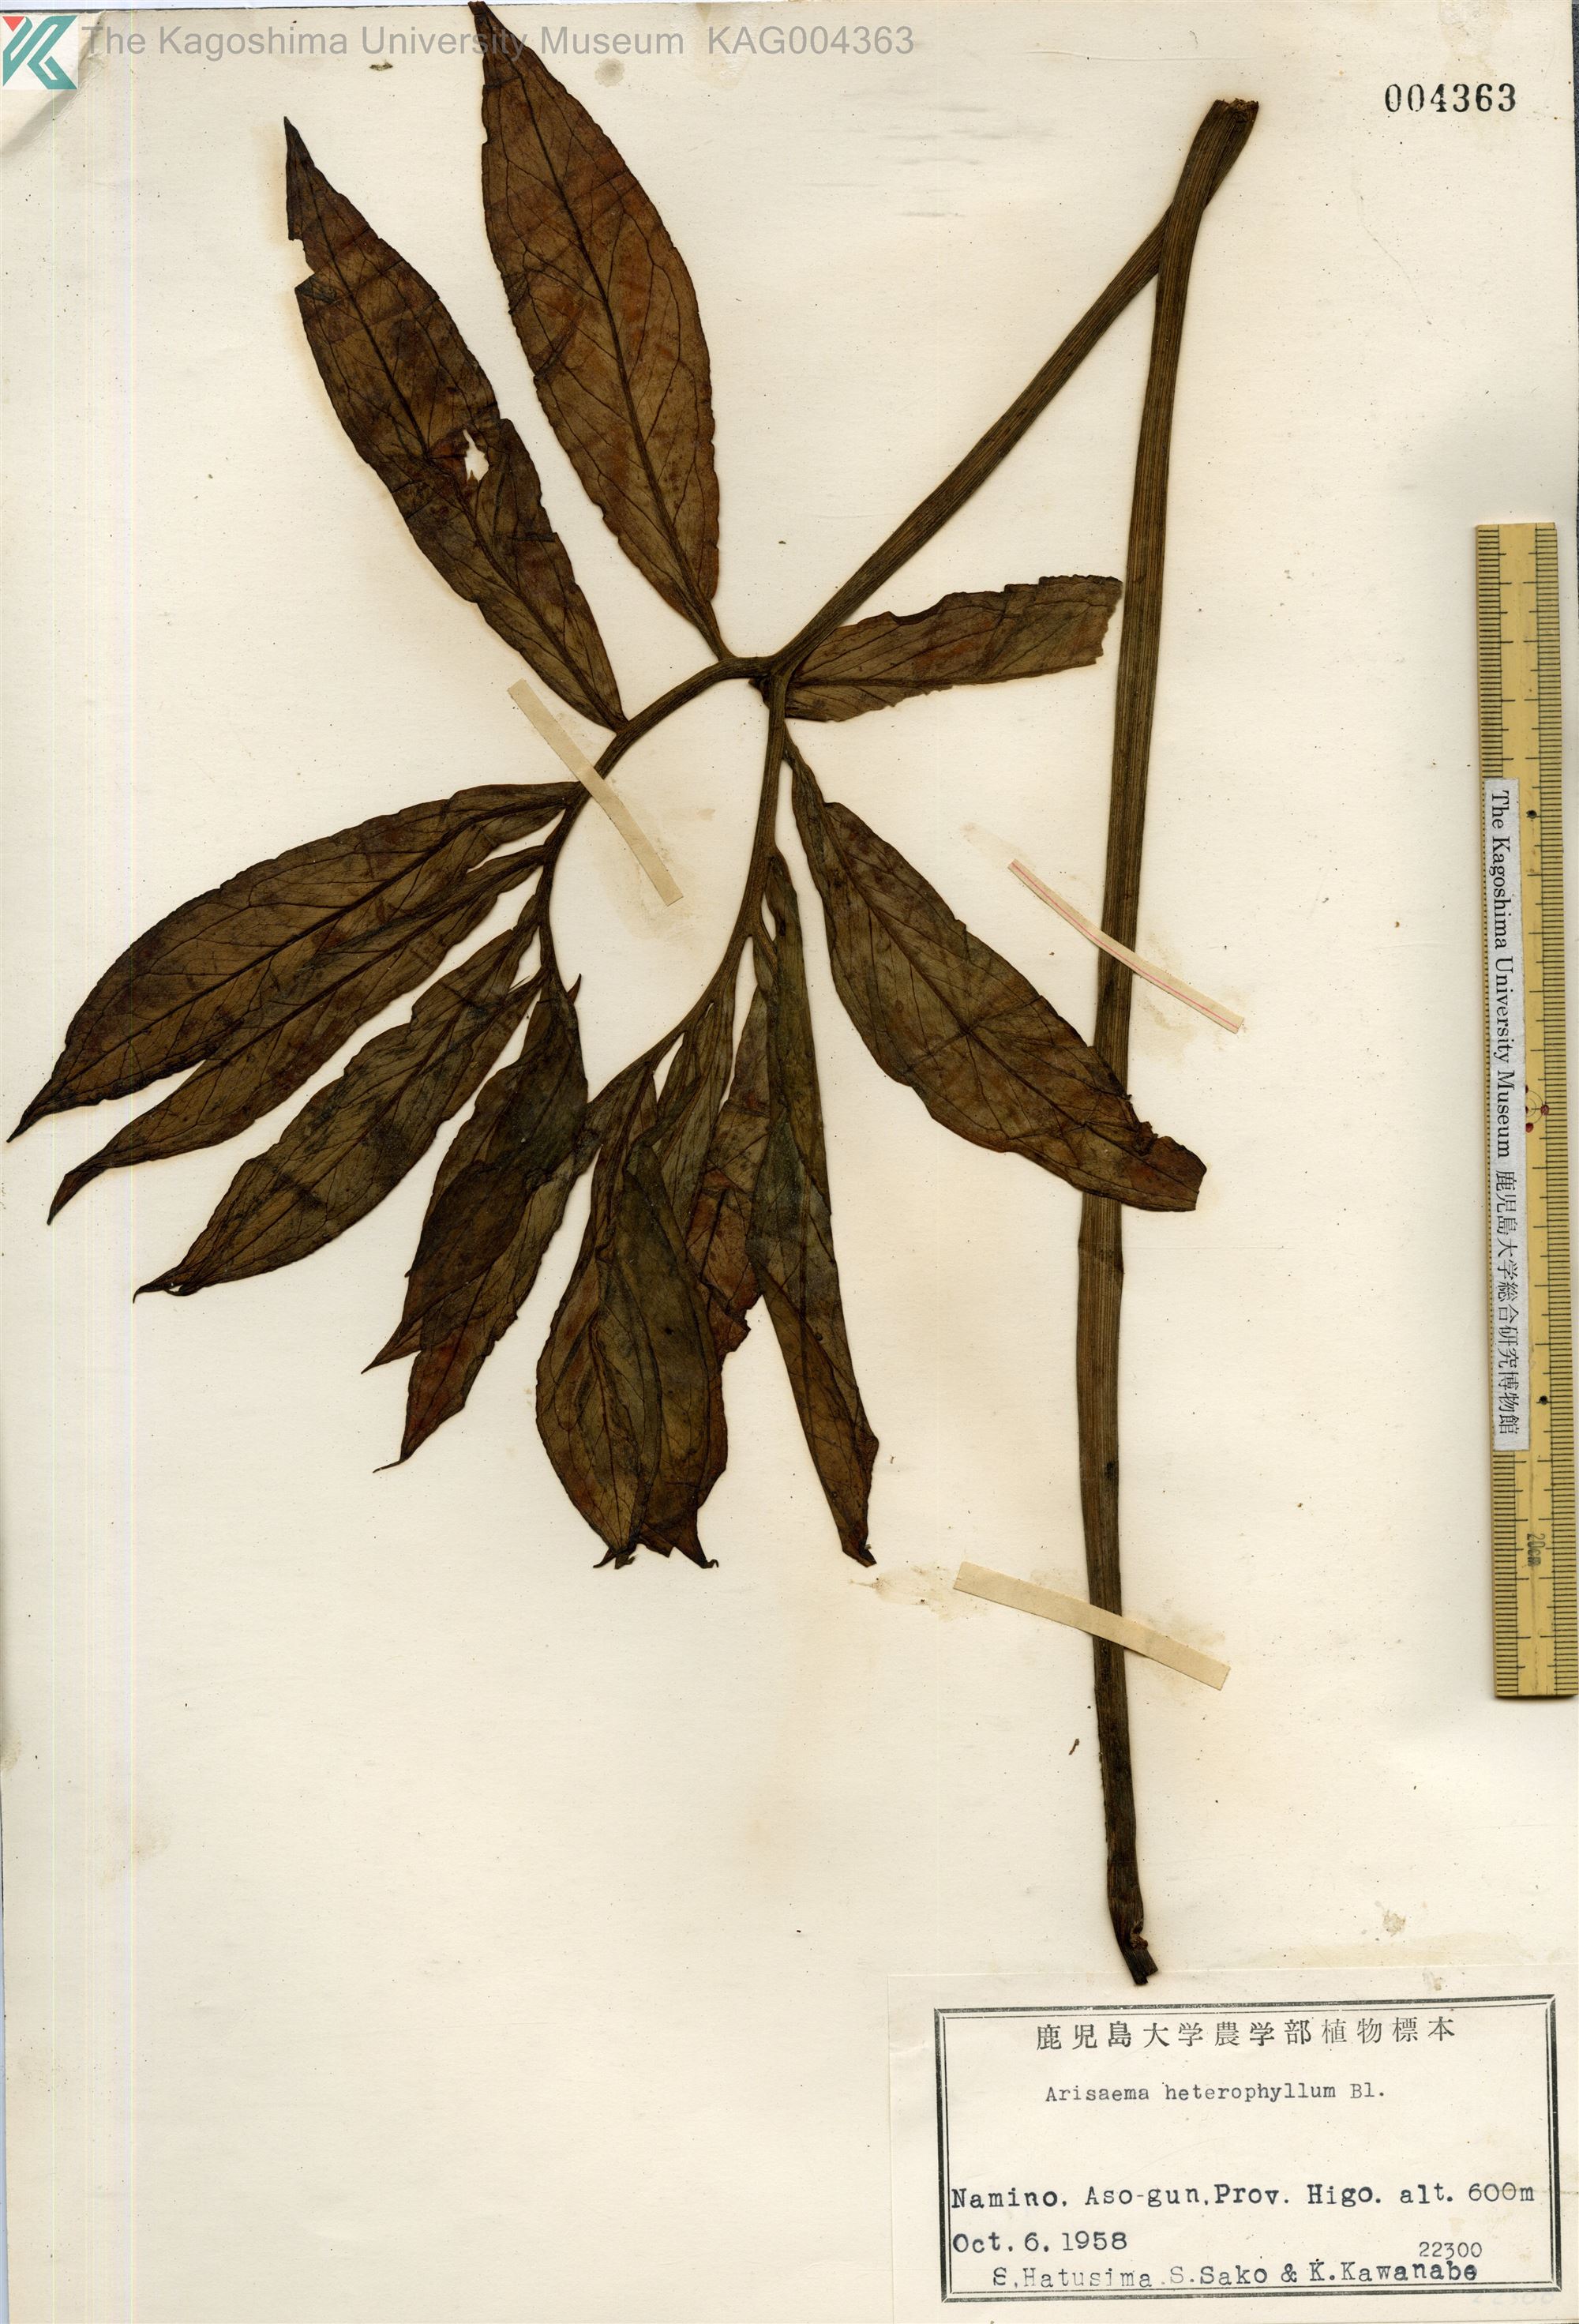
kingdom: Plantae
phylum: Tracheophyta
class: Liliopsida
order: Alismatales
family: Araceae
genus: Arisaema
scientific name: Arisaema heterophyllum
